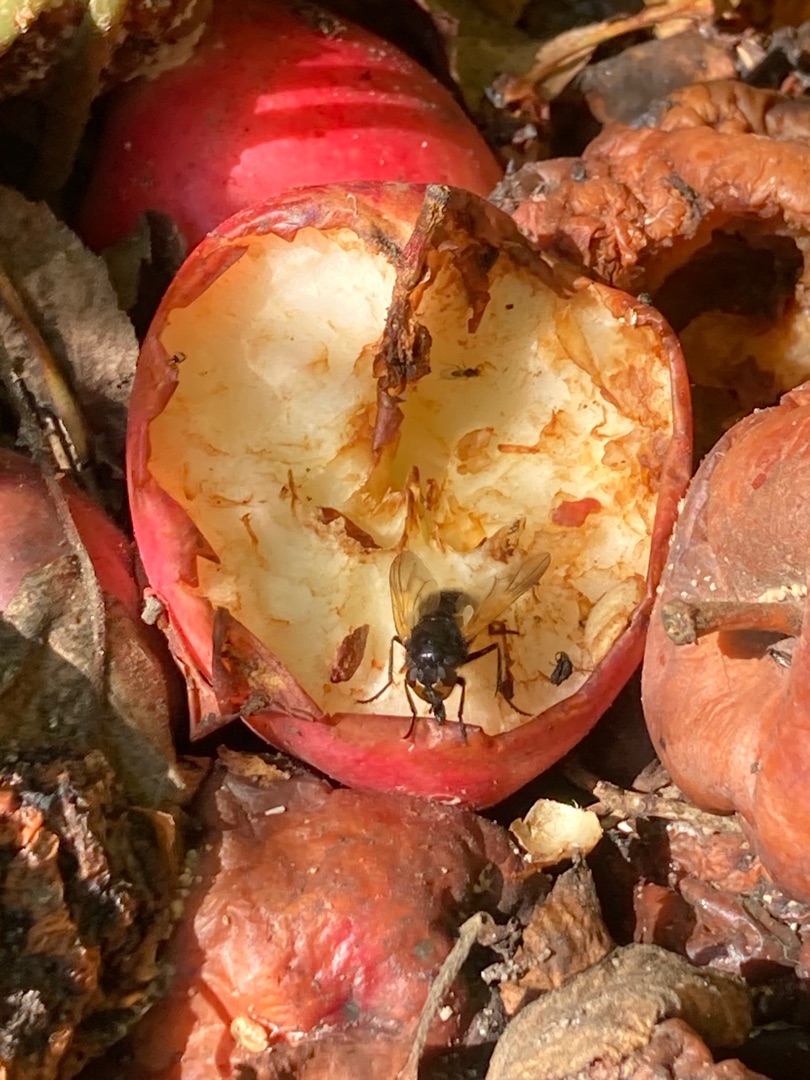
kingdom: Animalia
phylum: Arthropoda
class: Insecta
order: Diptera
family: Muscidae
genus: Mesembrina
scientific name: Mesembrina meridiana
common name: Gulvinget flue
